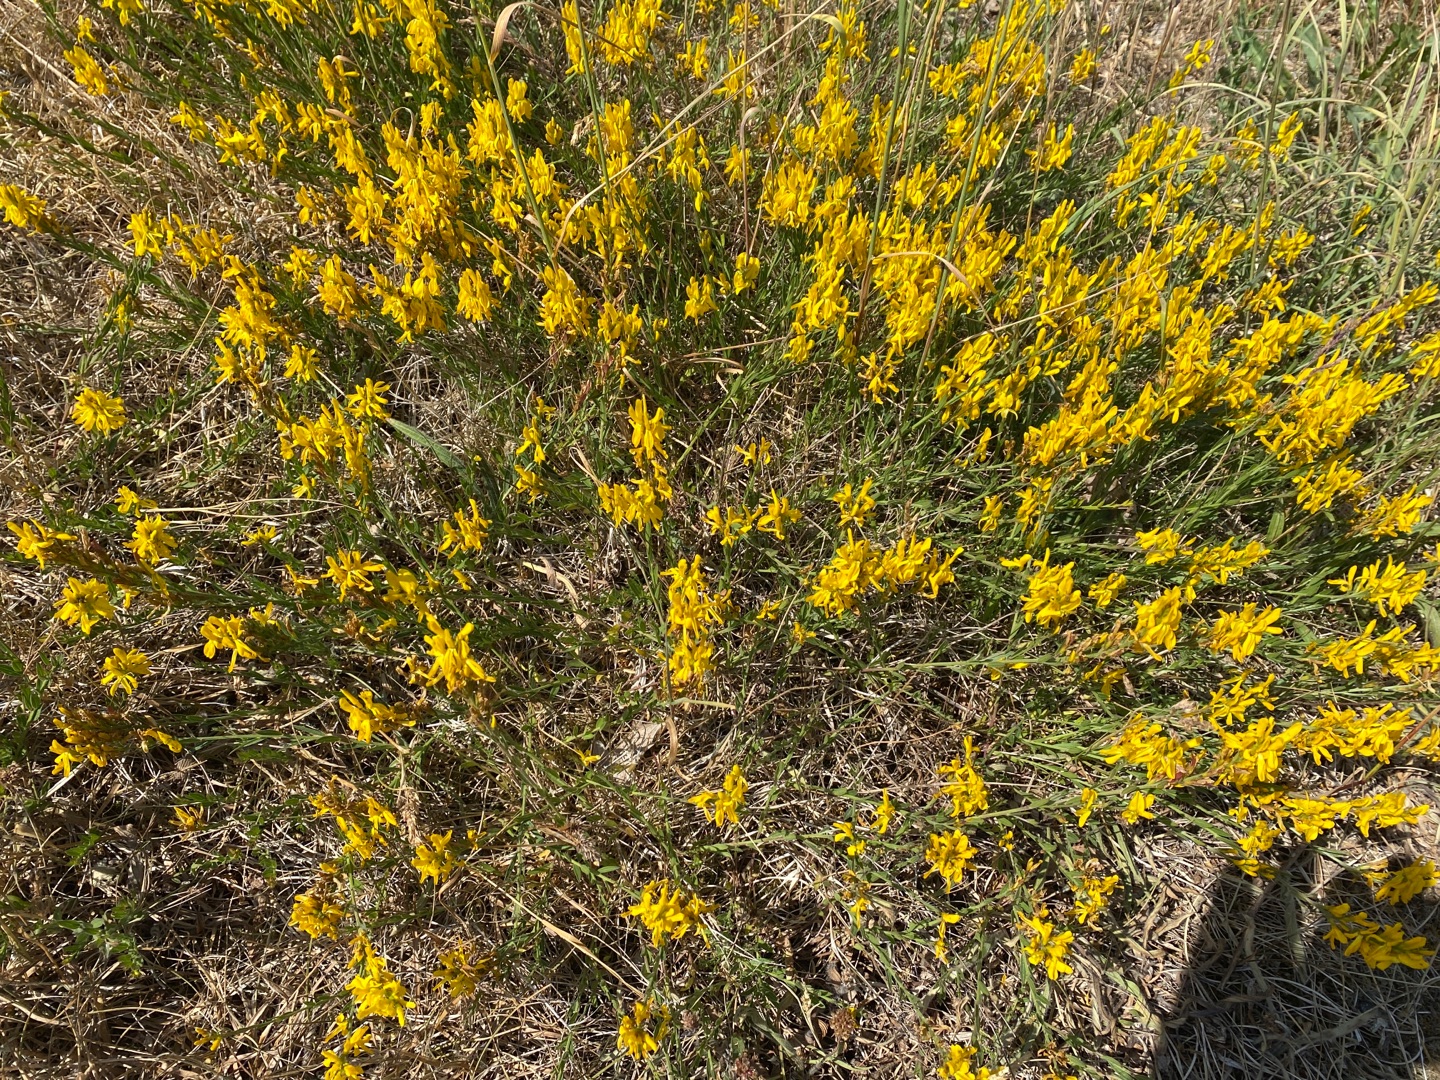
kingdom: Plantae
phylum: Tracheophyta
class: Magnoliopsida
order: Fabales
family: Fabaceae
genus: Genista
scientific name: Genista tinctoria
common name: Farve-visse
